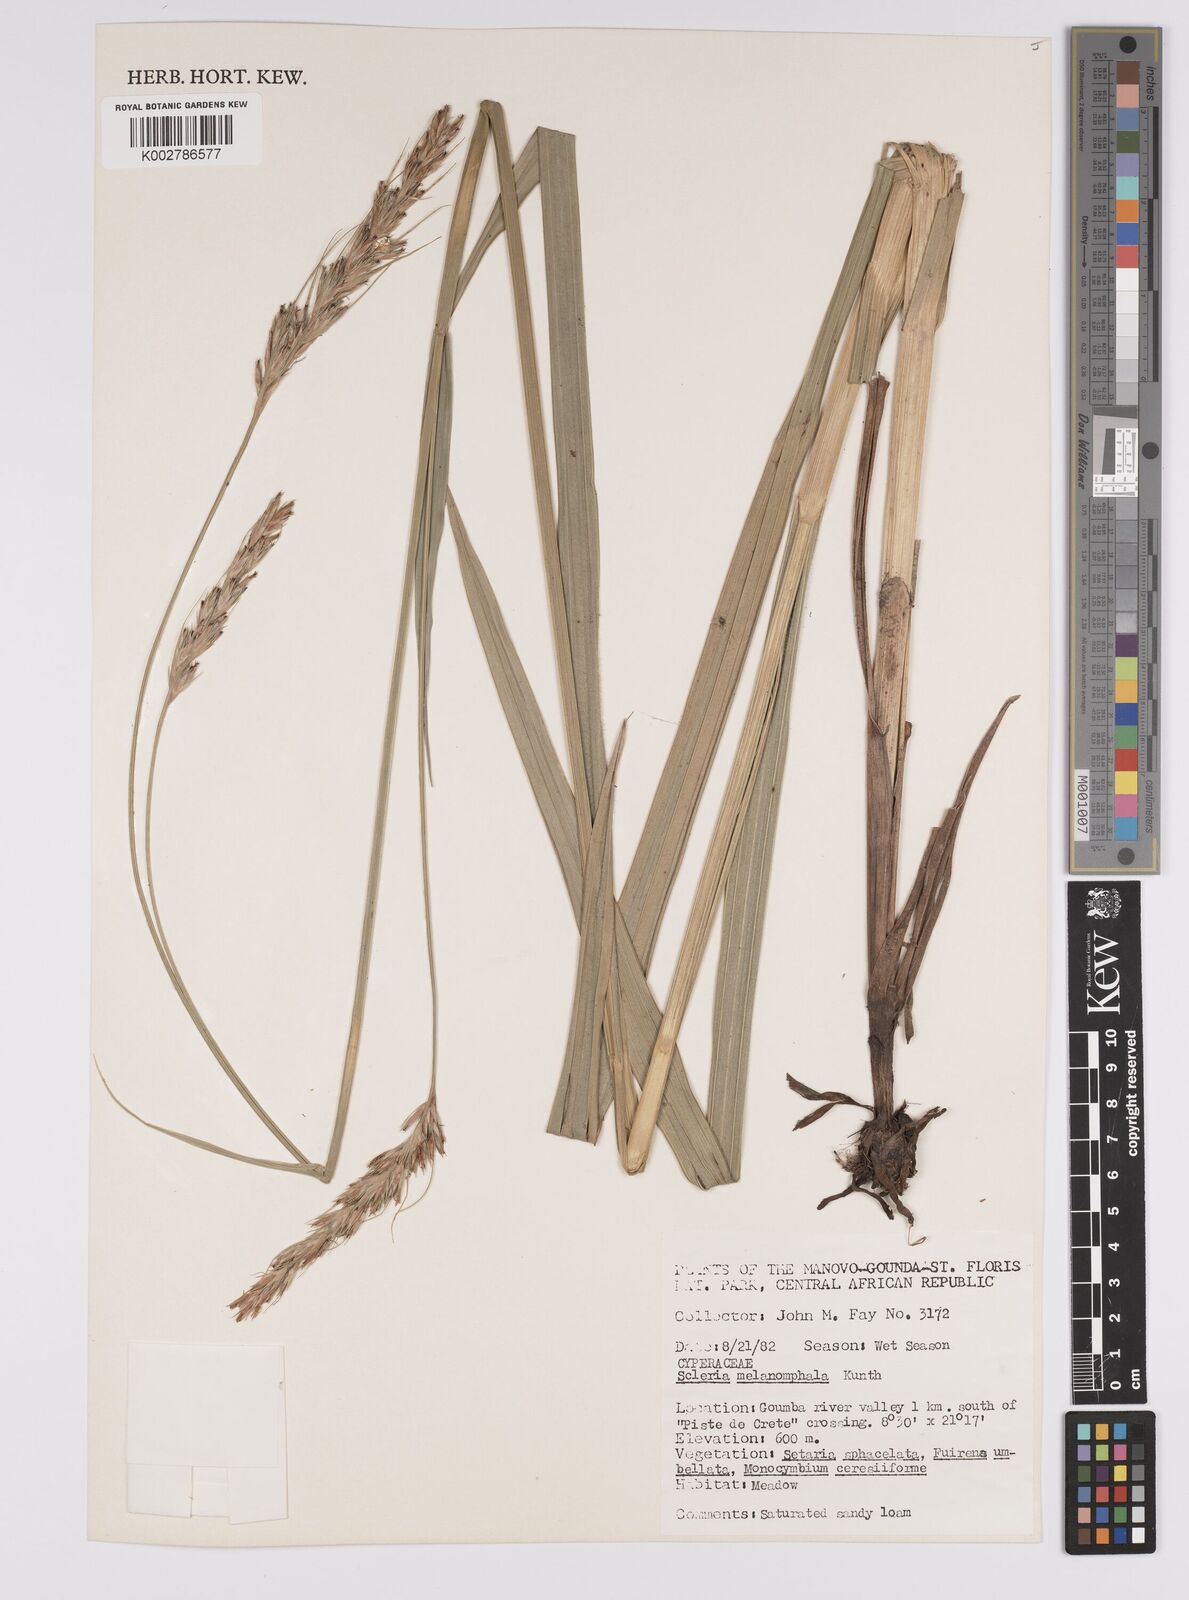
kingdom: Plantae
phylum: Tracheophyta
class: Liliopsida
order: Poales
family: Cyperaceae
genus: Scleria
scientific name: Scleria melanomphala
